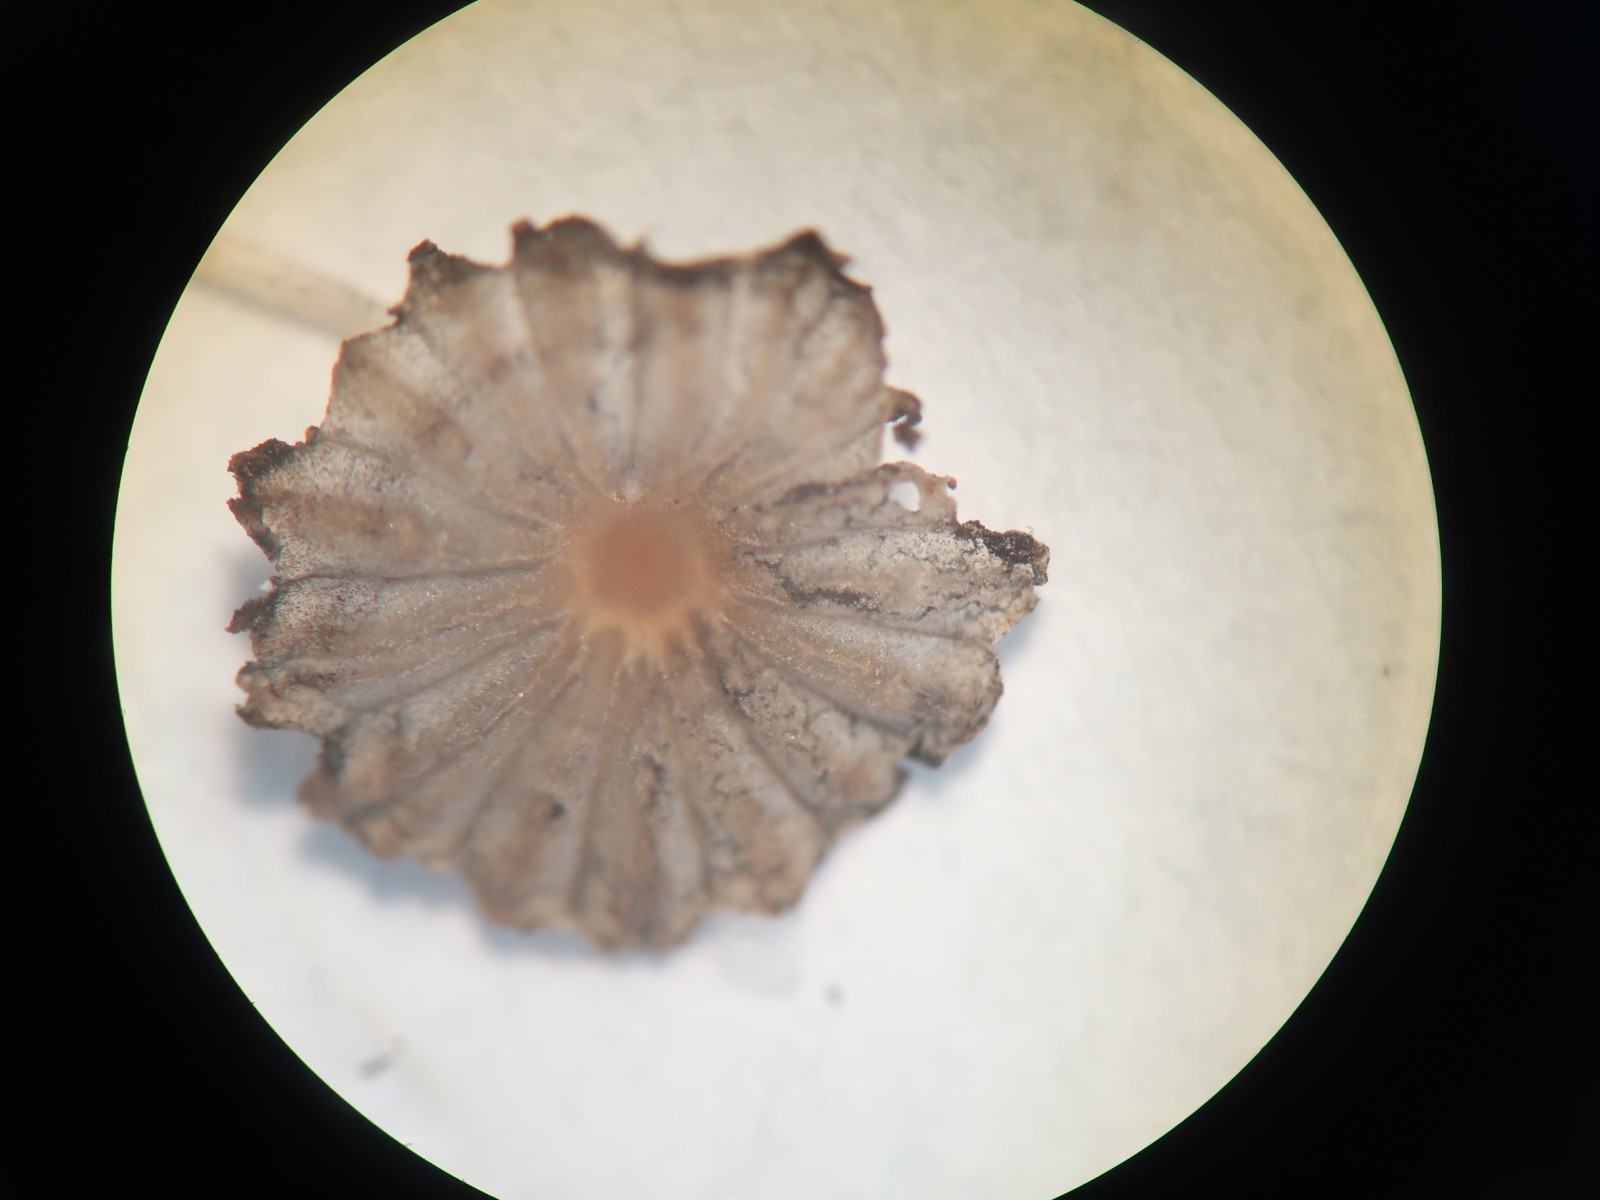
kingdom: Fungi
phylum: Basidiomycota
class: Agaricomycetes
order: Agaricales
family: Psathyrellaceae
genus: Parasola
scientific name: Parasola misera
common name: lillebitte hjulhat
